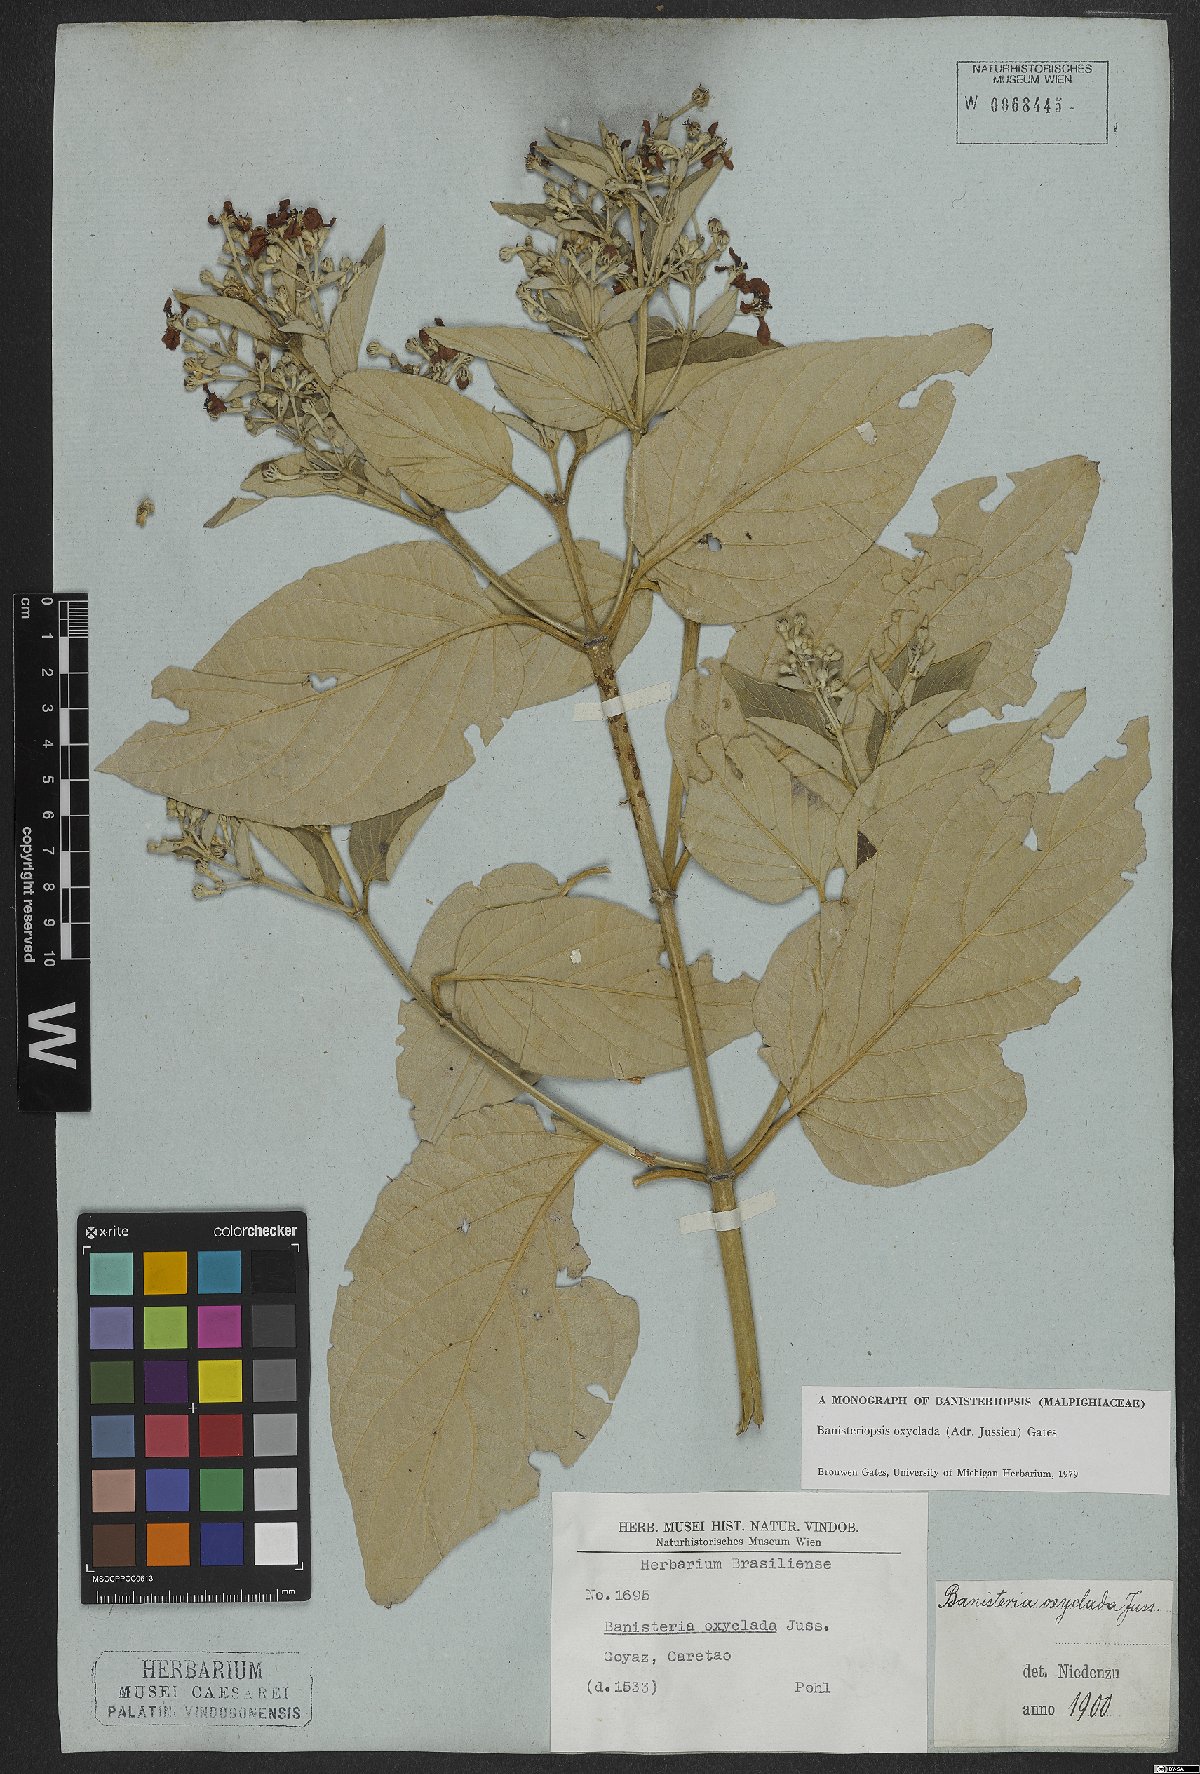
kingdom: Plantae
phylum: Tracheophyta
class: Magnoliopsida
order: Malpighiales
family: Malpighiaceae
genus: Banisteriopsis
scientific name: Banisteriopsis oxyclada
